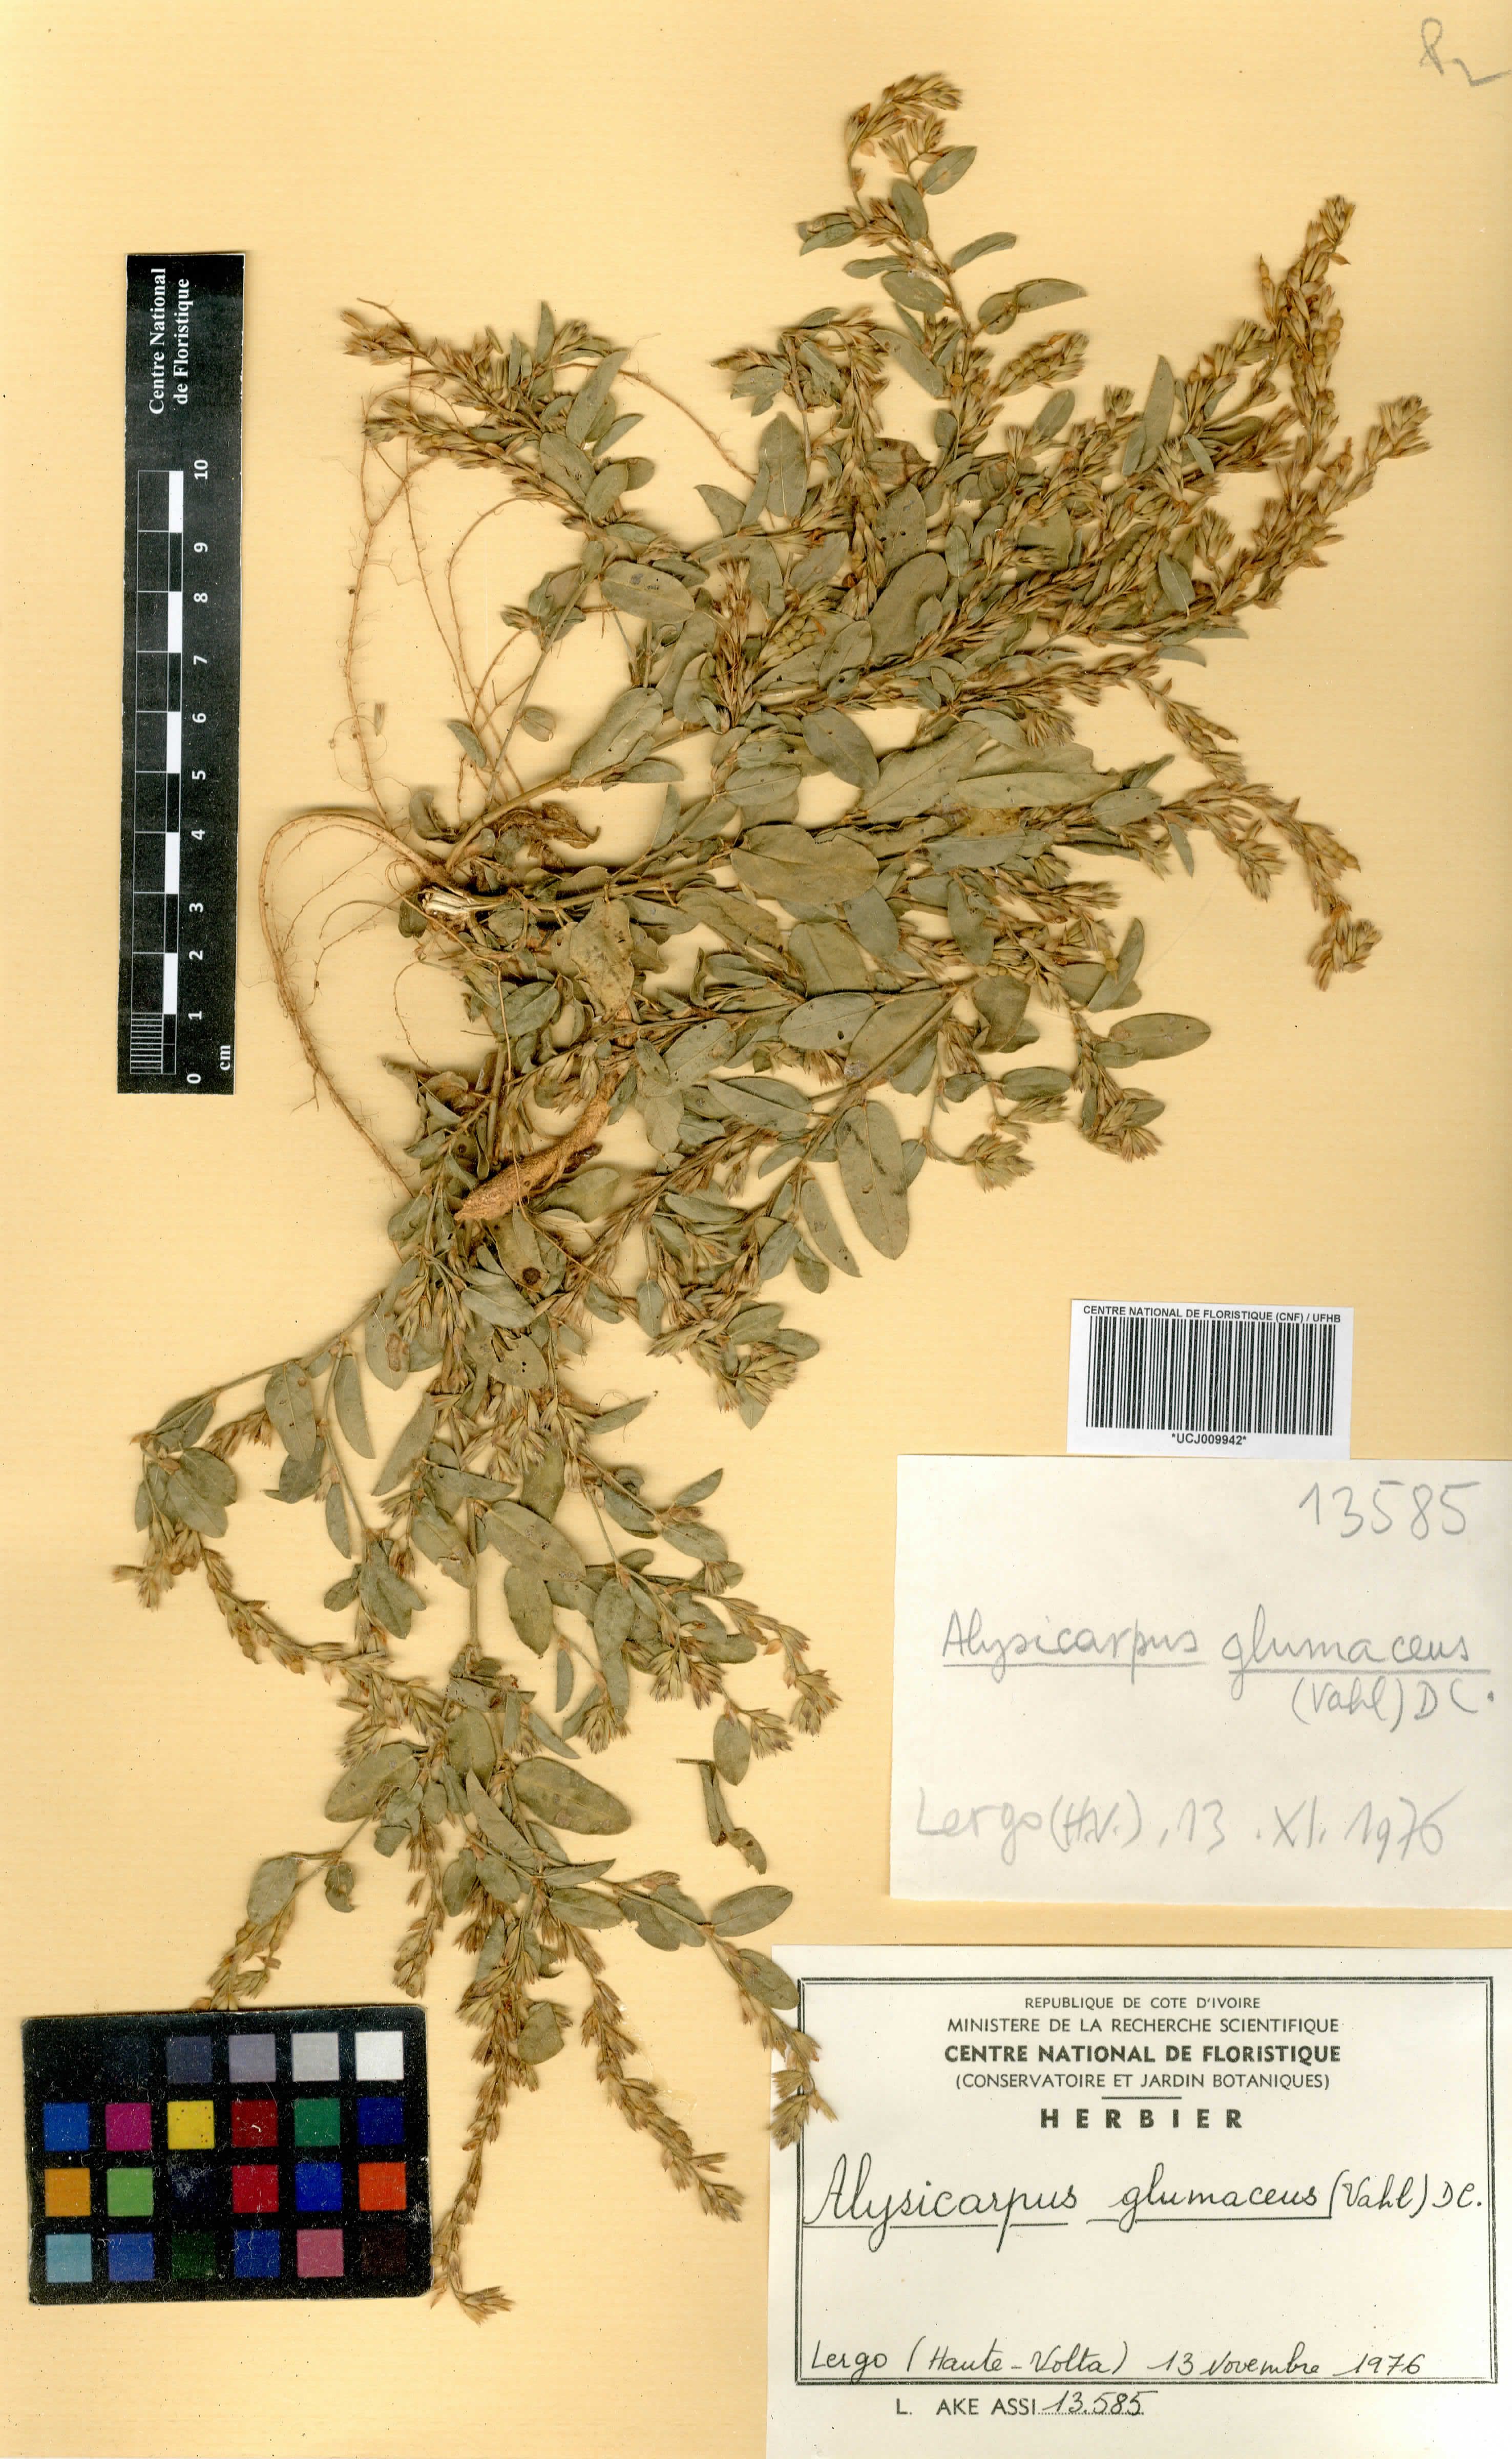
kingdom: Plantae
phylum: Tracheophyta
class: Magnoliopsida
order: Fabales
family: Fabaceae
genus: Alysicarpus
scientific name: Alysicarpus glumaceus
